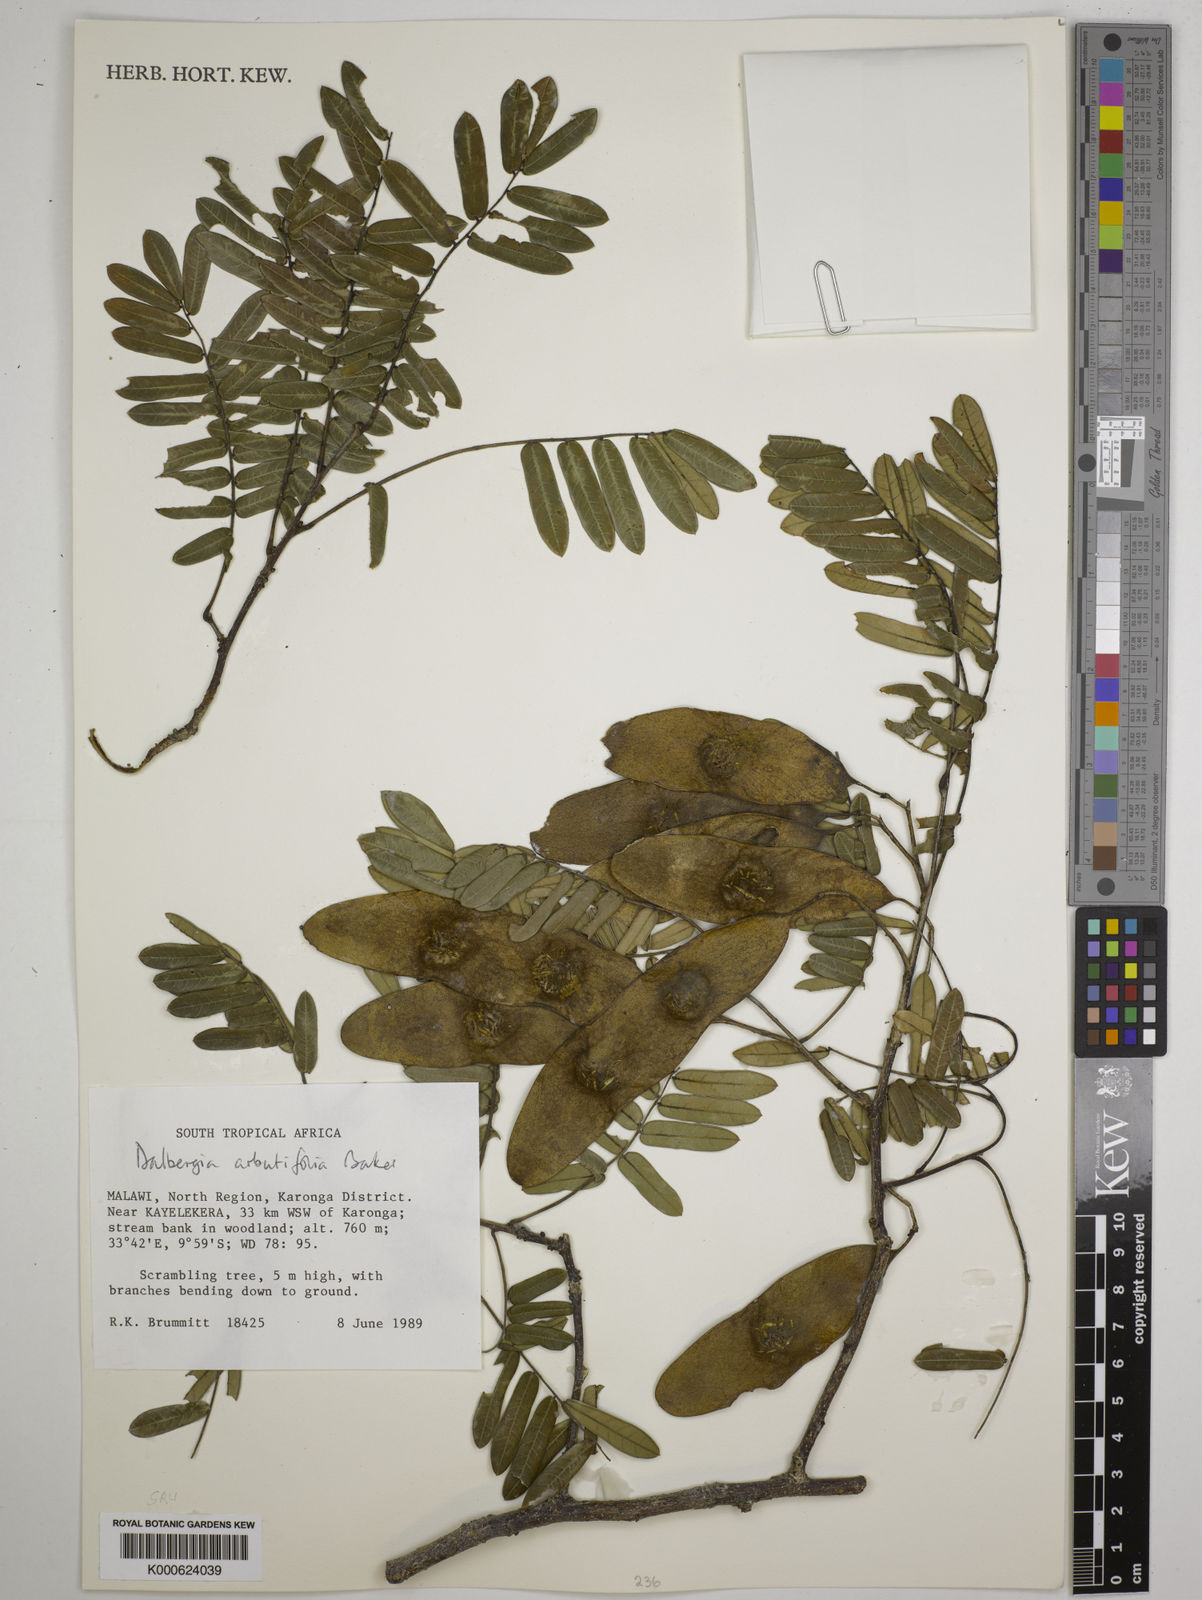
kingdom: Plantae
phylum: Tracheophyta
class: Magnoliopsida
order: Fabales
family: Fabaceae
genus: Dalbergia
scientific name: Dalbergia arbutifolia
